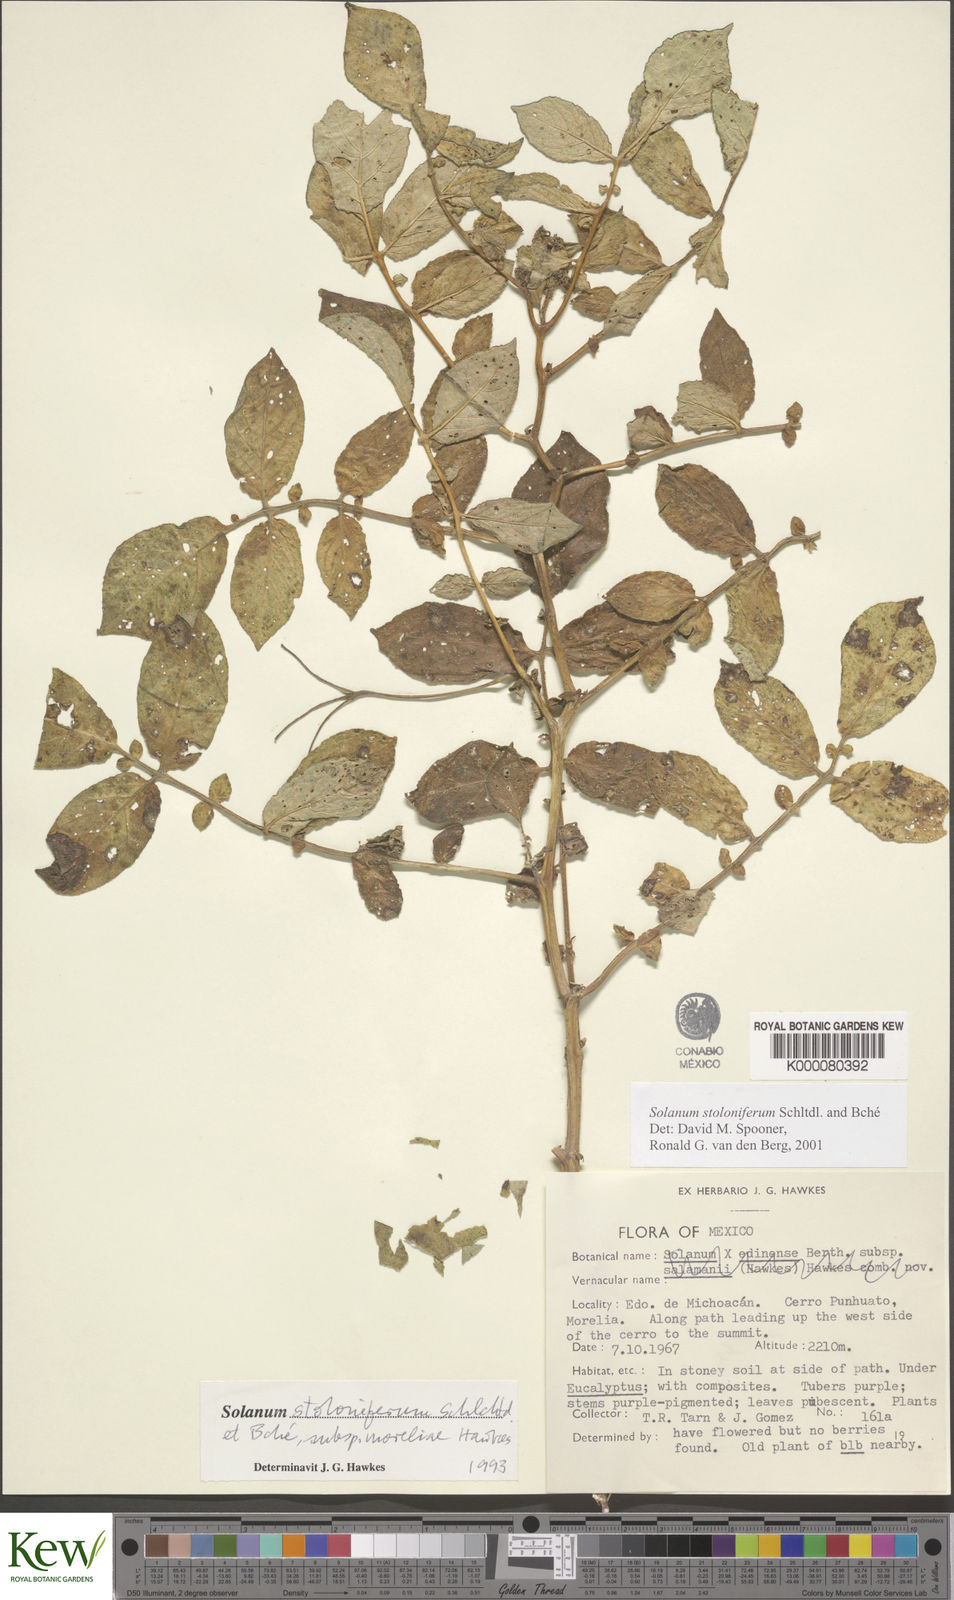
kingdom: Plantae
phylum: Tracheophyta
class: Magnoliopsida
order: Solanales
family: Solanaceae
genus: Solanum
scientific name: Solanum stoloniferum
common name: Fendler's nighshade
